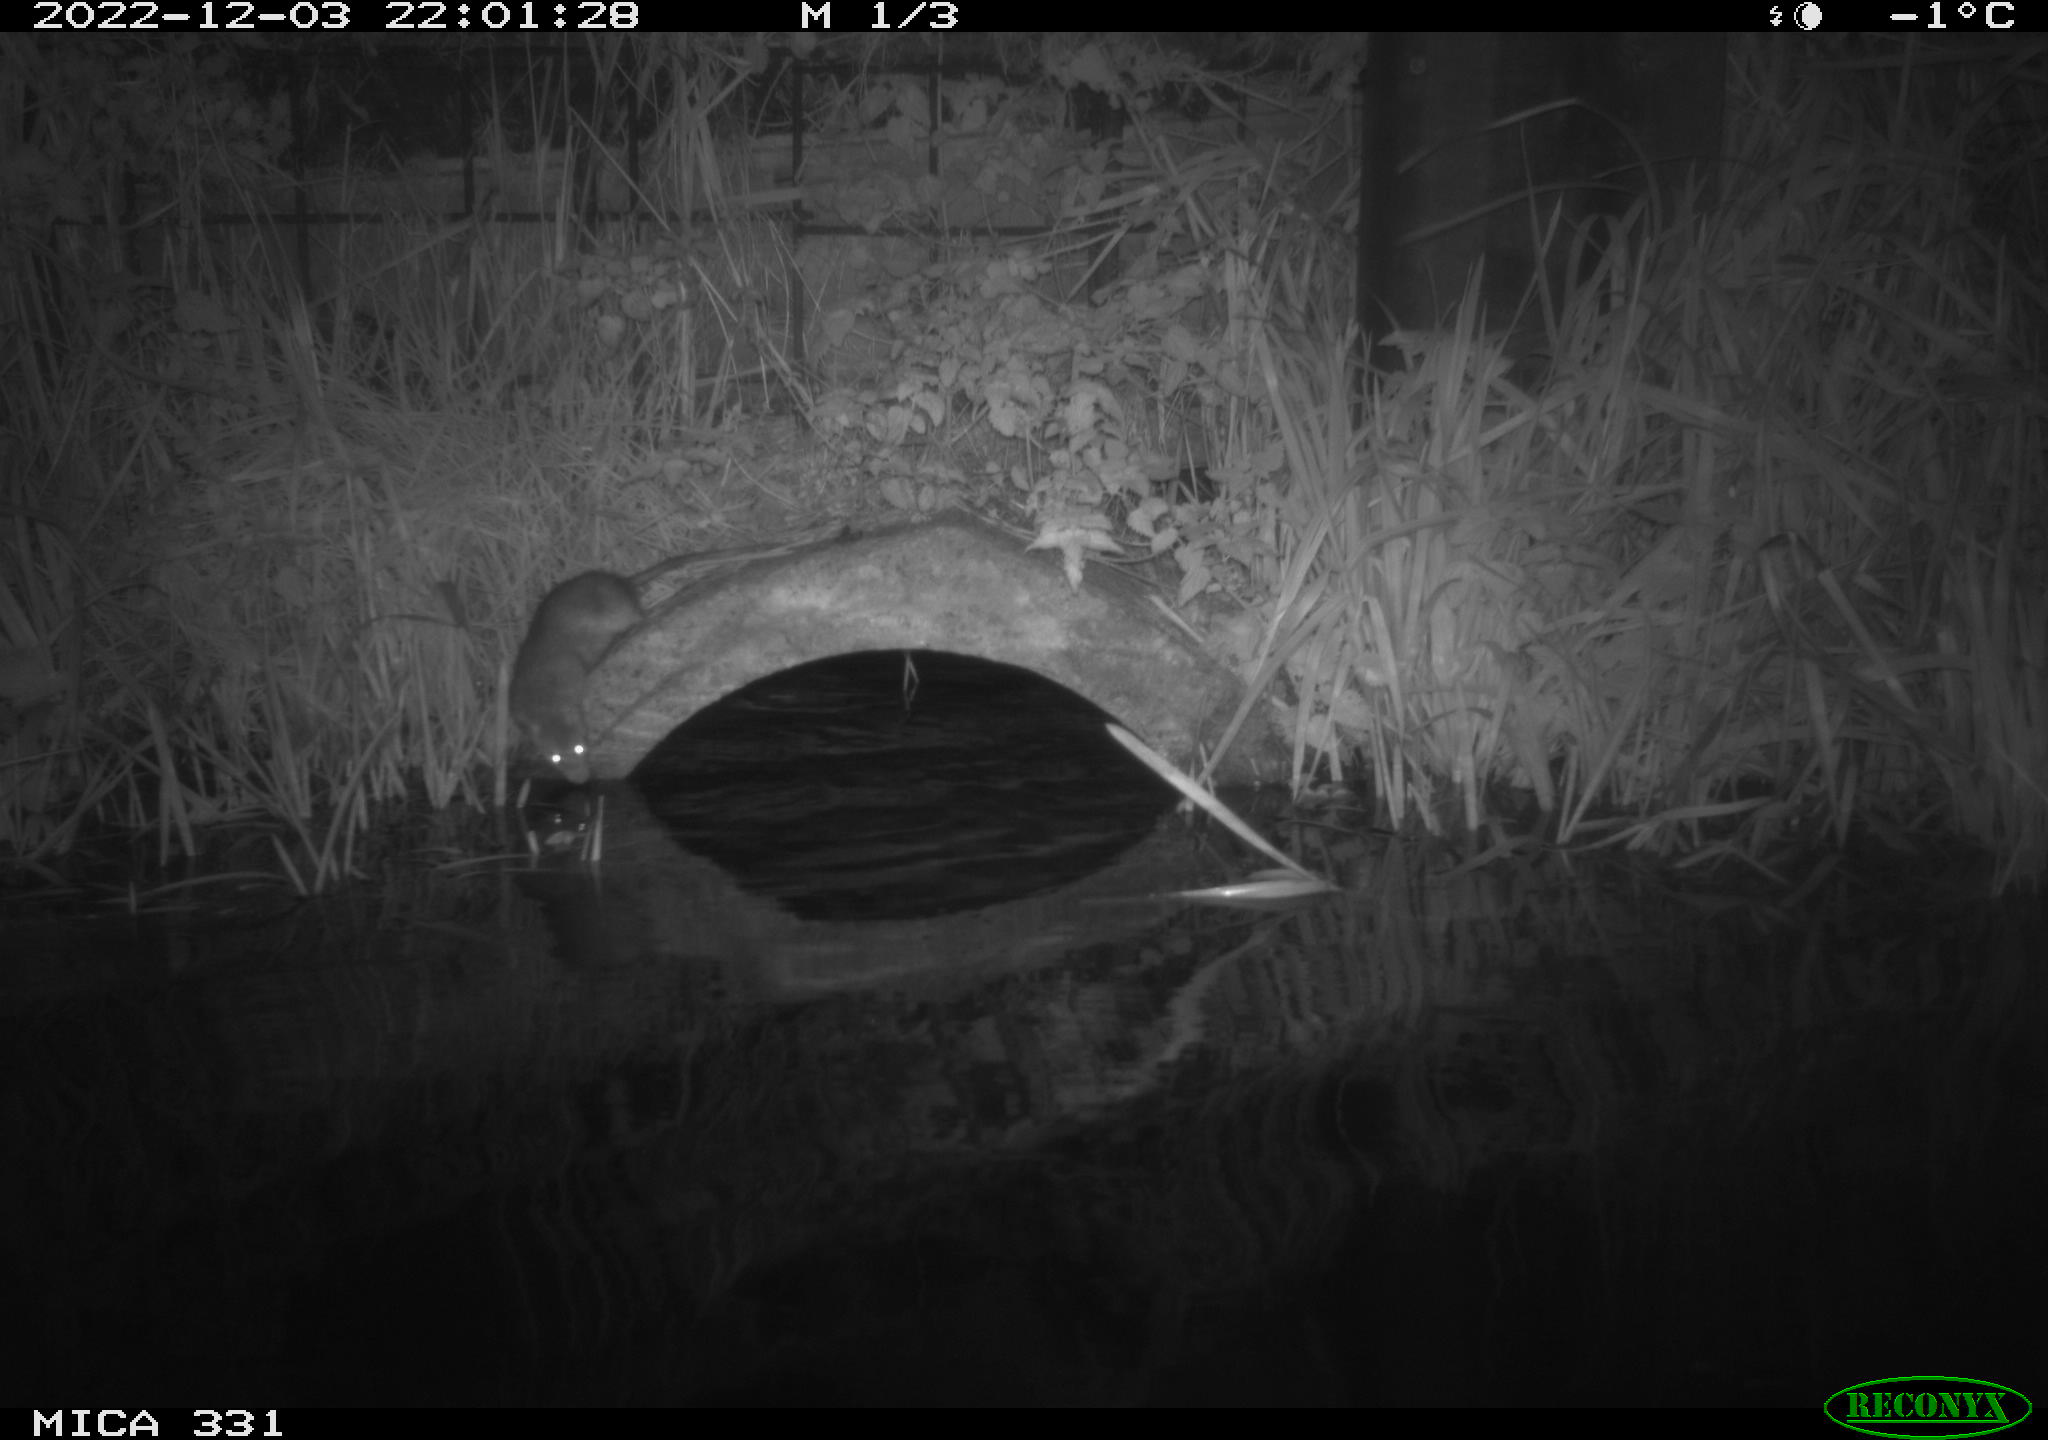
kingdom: Animalia
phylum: Chordata
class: Mammalia
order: Rodentia
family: Muridae
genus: Rattus
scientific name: Rattus norvegicus
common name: Brown rat
